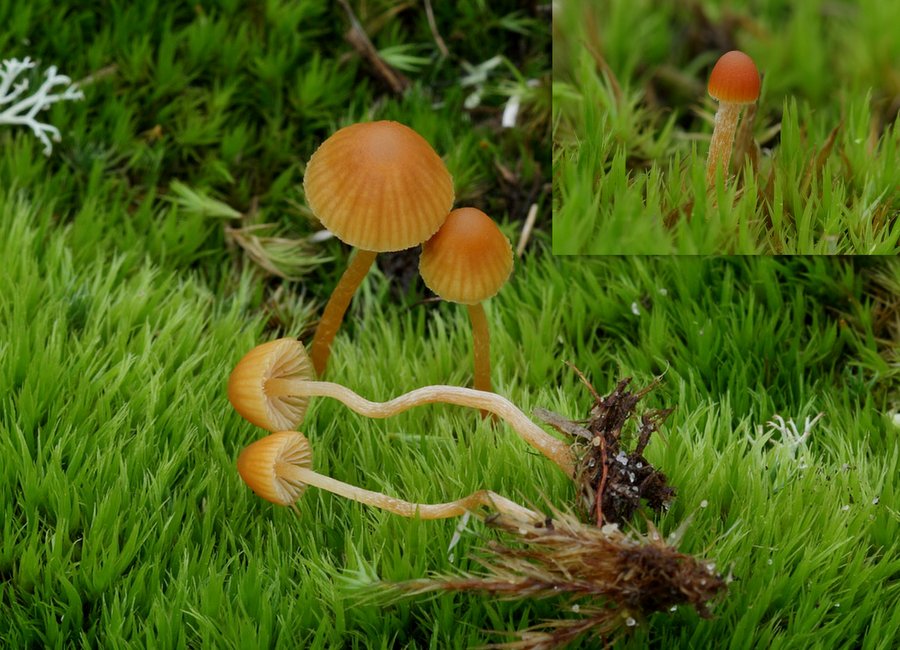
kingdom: Fungi
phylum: Basidiomycota
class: Agaricomycetes
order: Agaricales
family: Hymenogastraceae
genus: Galerina
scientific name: Galerina calyptrata
